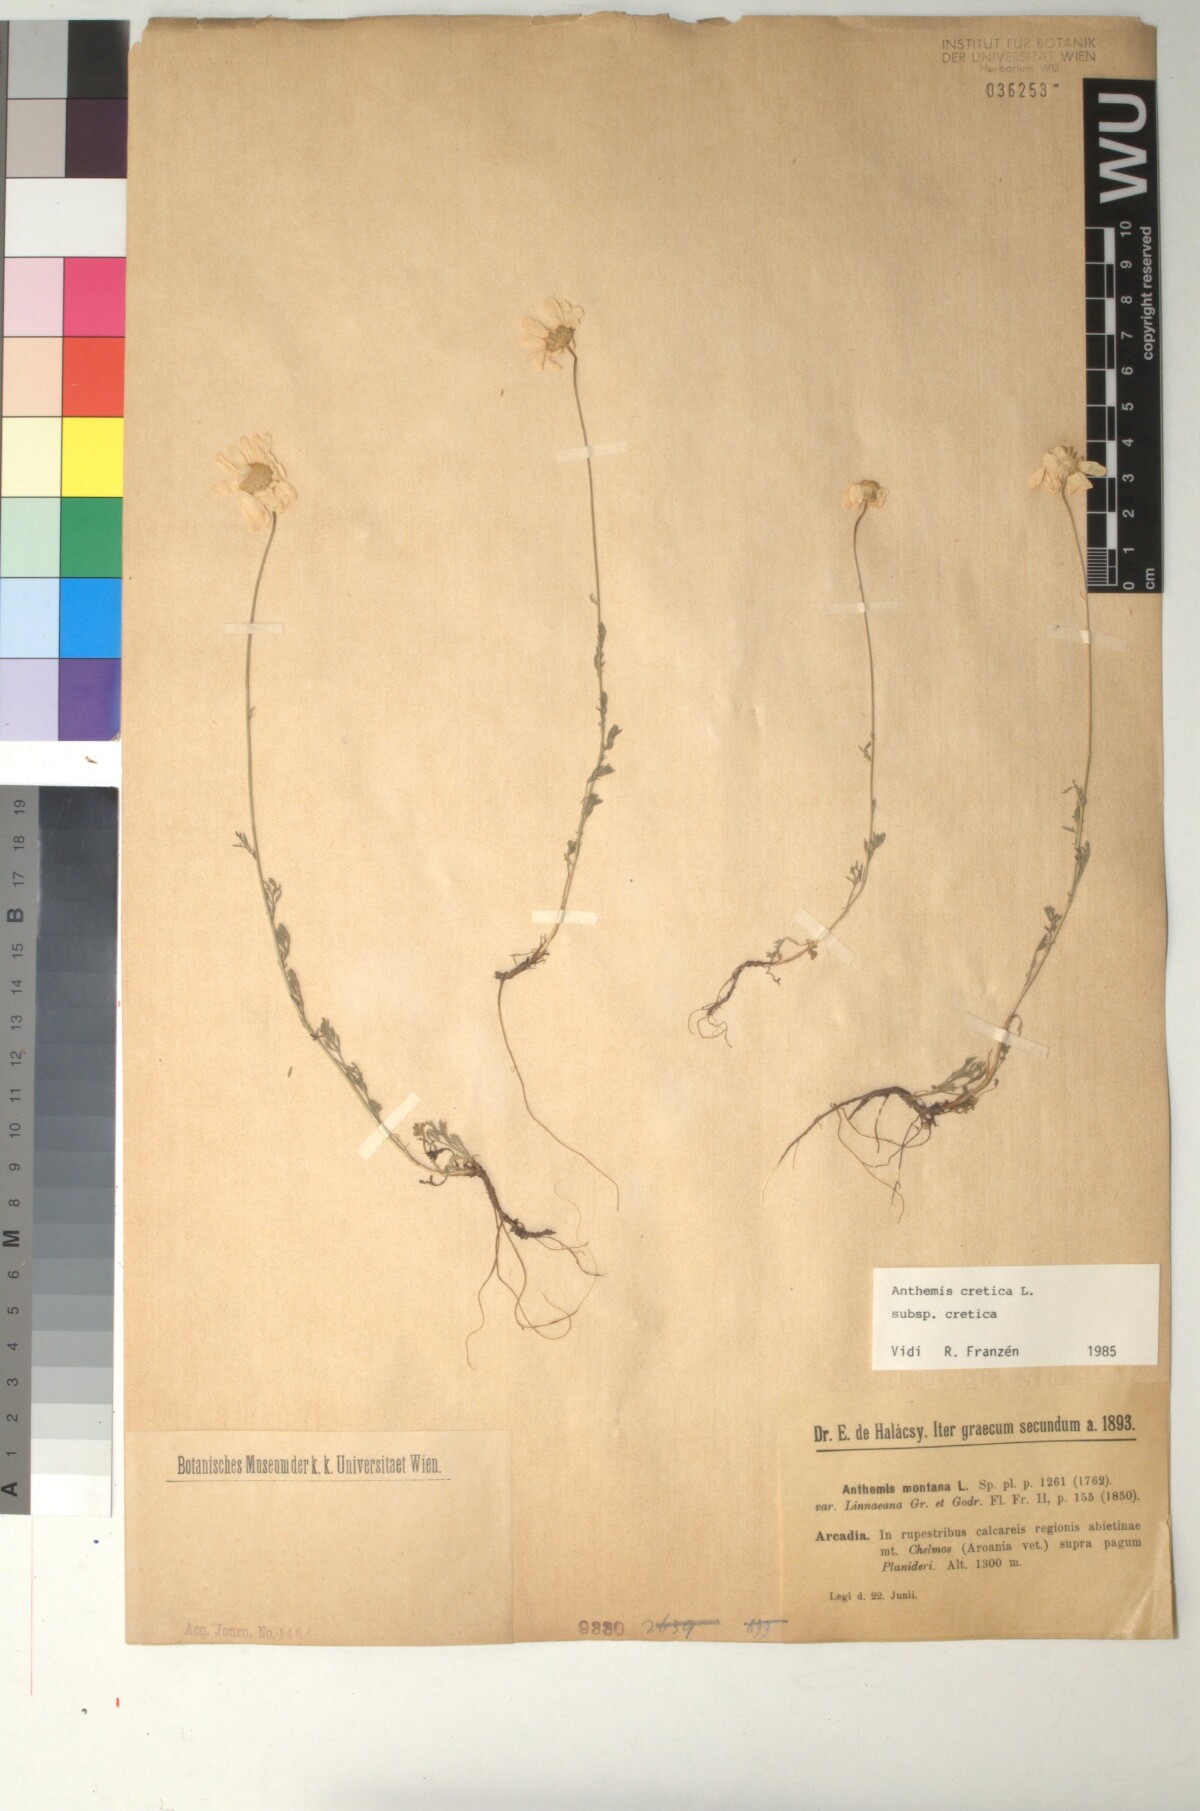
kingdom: Plantae
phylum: Tracheophyta
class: Magnoliopsida
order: Asterales
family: Asteraceae
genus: Anthemis
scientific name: Anthemis cretica
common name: Mountain dog-daisy
